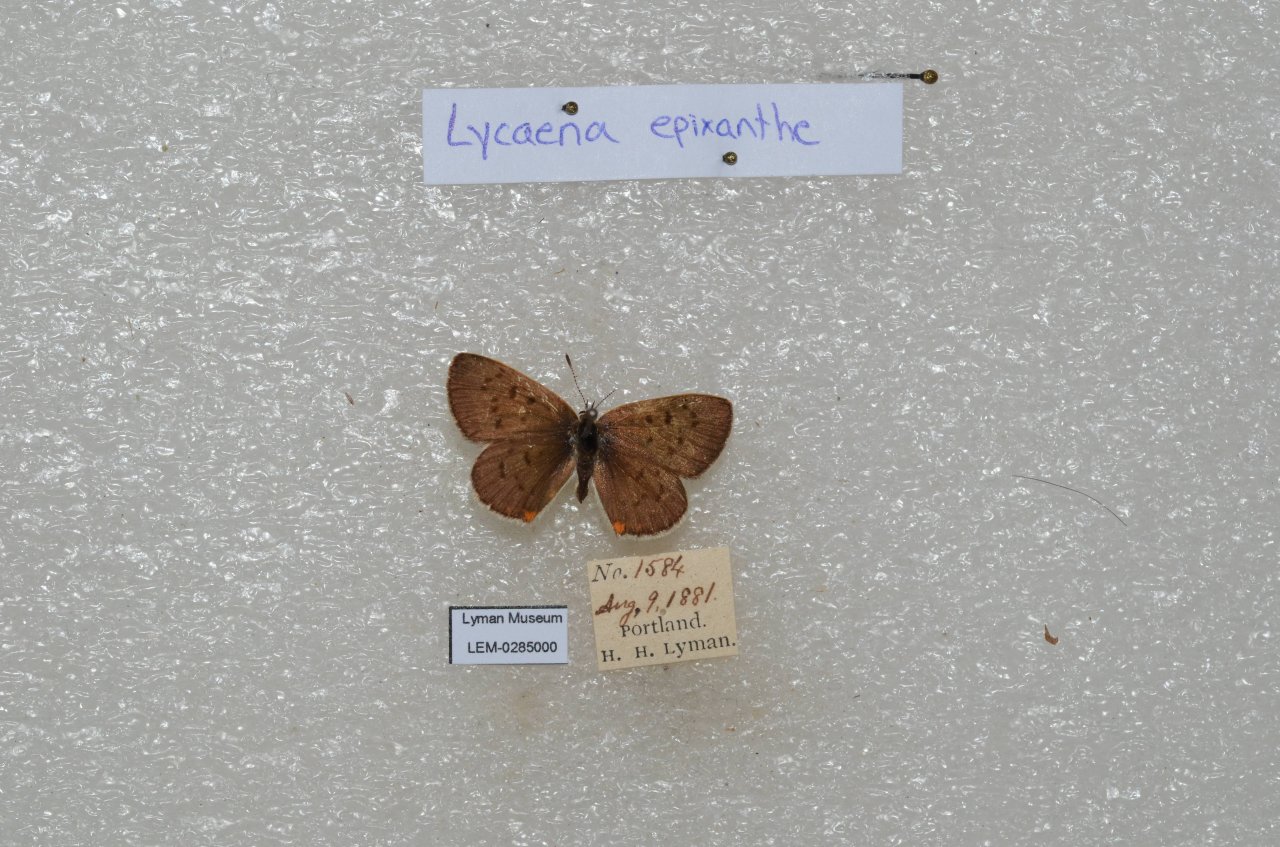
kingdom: Animalia
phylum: Arthropoda
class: Insecta
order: Lepidoptera
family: Sesiidae
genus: Sesia
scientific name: Sesia Lycaena epixanthe
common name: Bog Copper
